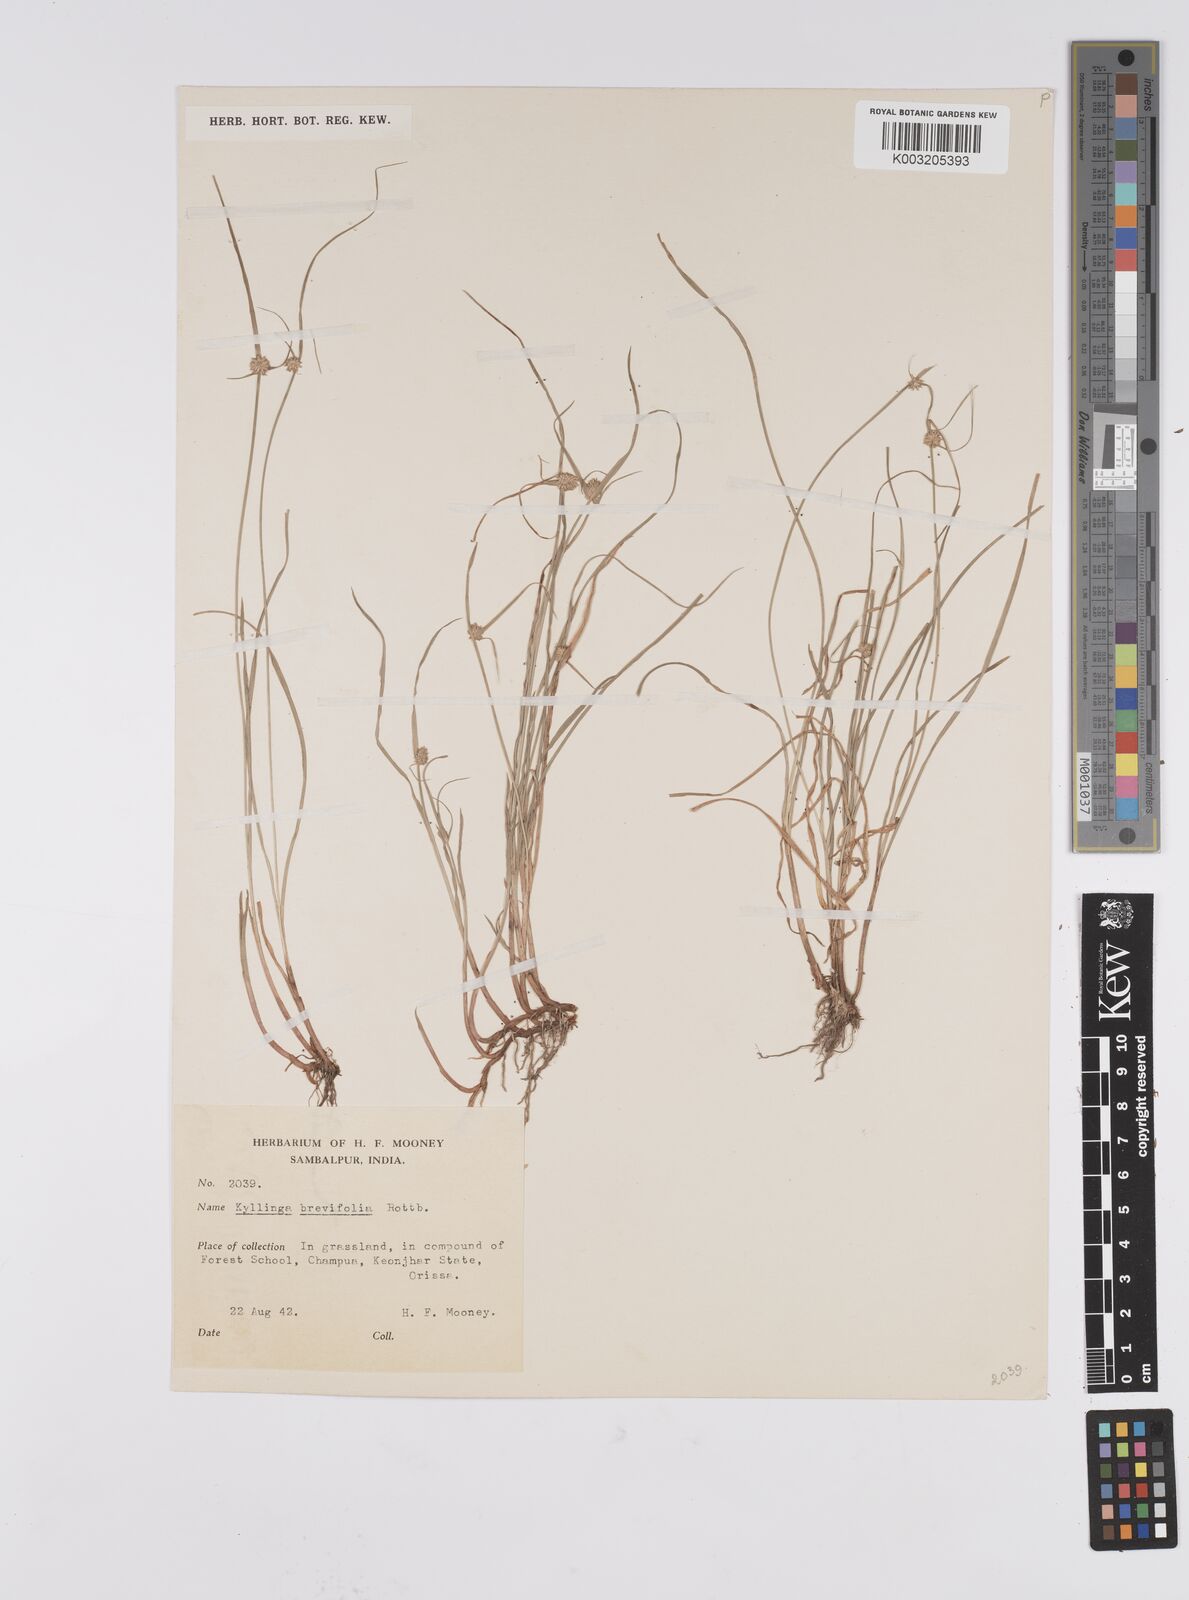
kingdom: Plantae
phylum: Tracheophyta
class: Liliopsida
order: Poales
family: Cyperaceae
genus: Cyperus
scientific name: Cyperus brevifolius
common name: Globe kyllinga
